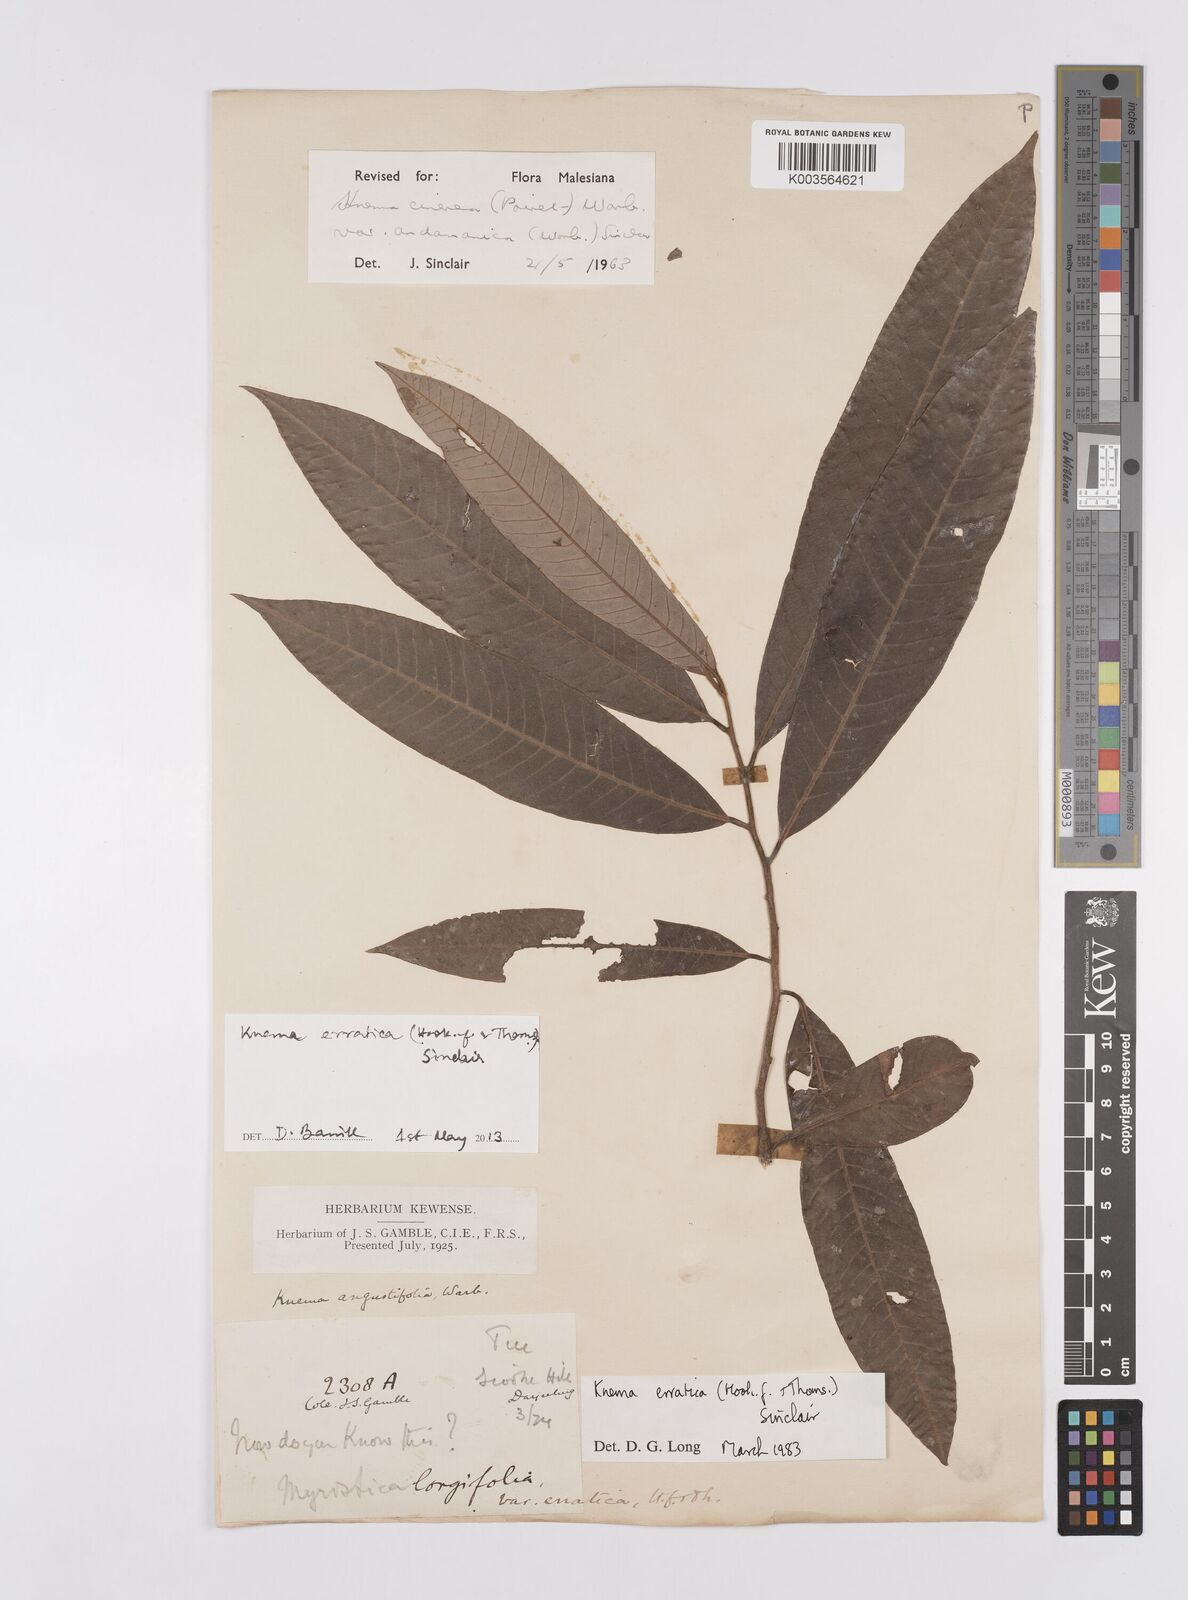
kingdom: Plantae
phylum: Tracheophyta
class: Magnoliopsida
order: Magnoliales
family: Myristicaceae
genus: Knema
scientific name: Knema
